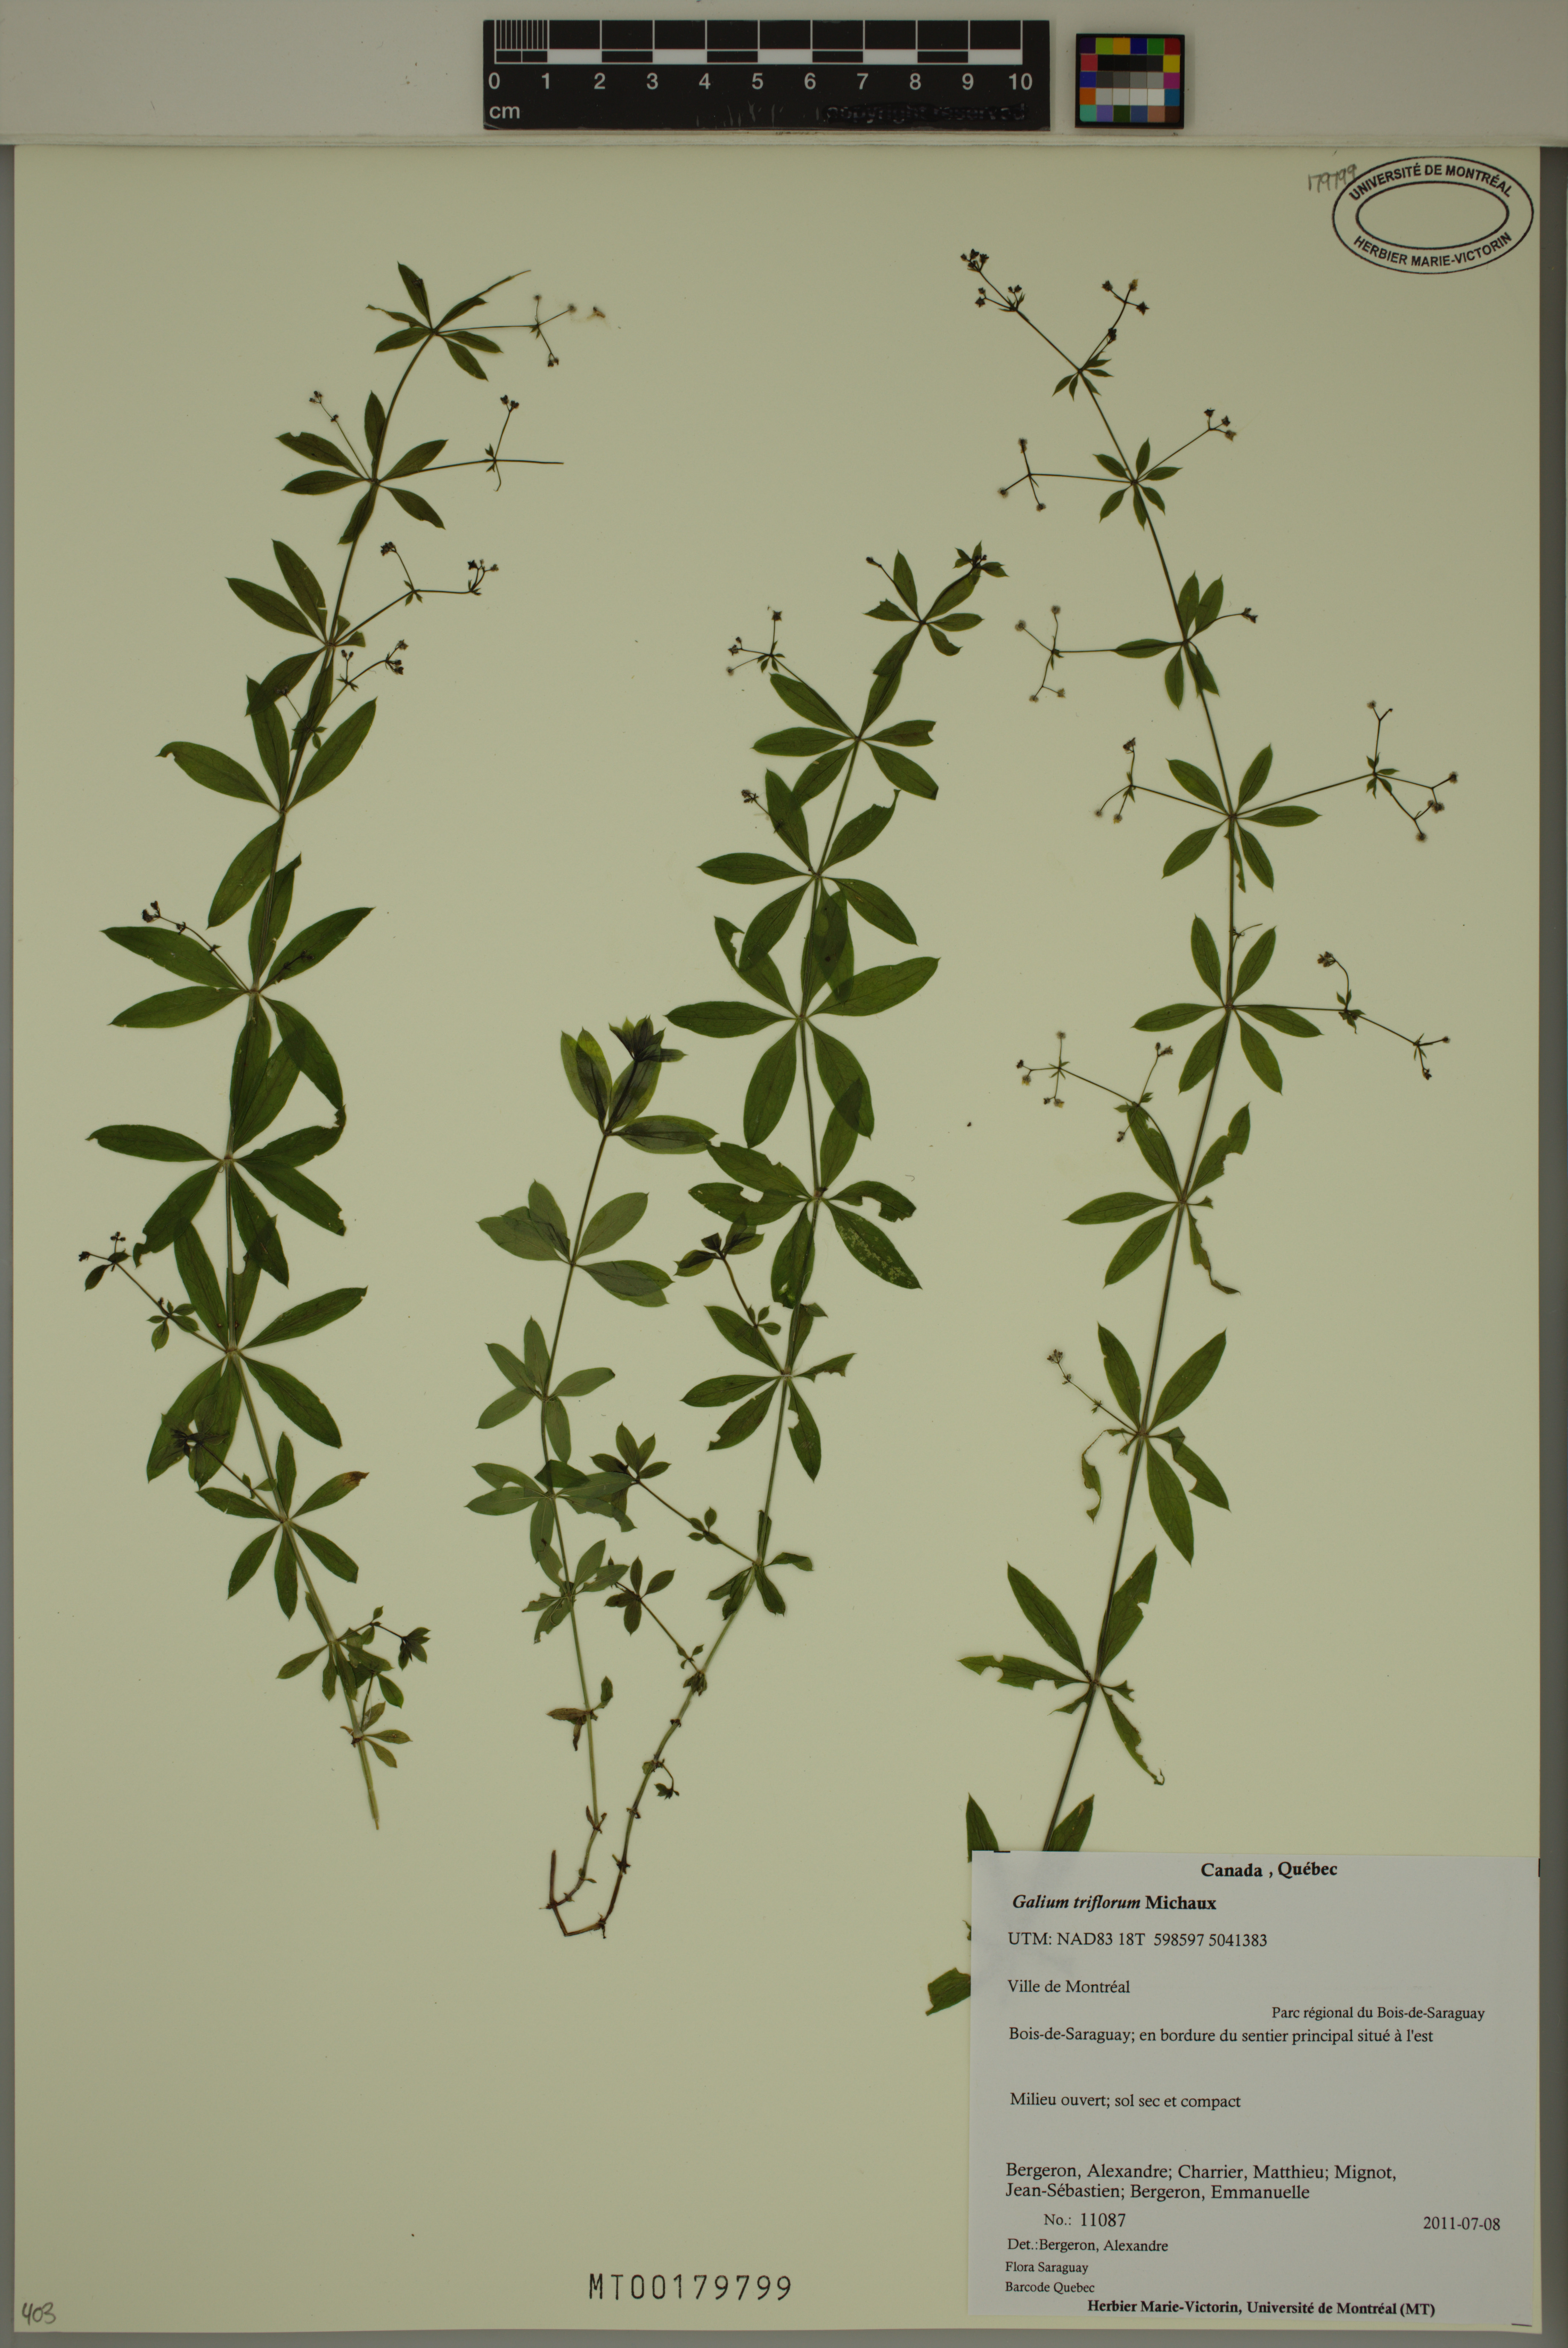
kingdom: Plantae
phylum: Tracheophyta
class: Magnoliopsida
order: Gentianales
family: Rubiaceae
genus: Galium
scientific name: Galium triflorum
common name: Fragrant bedstraw
